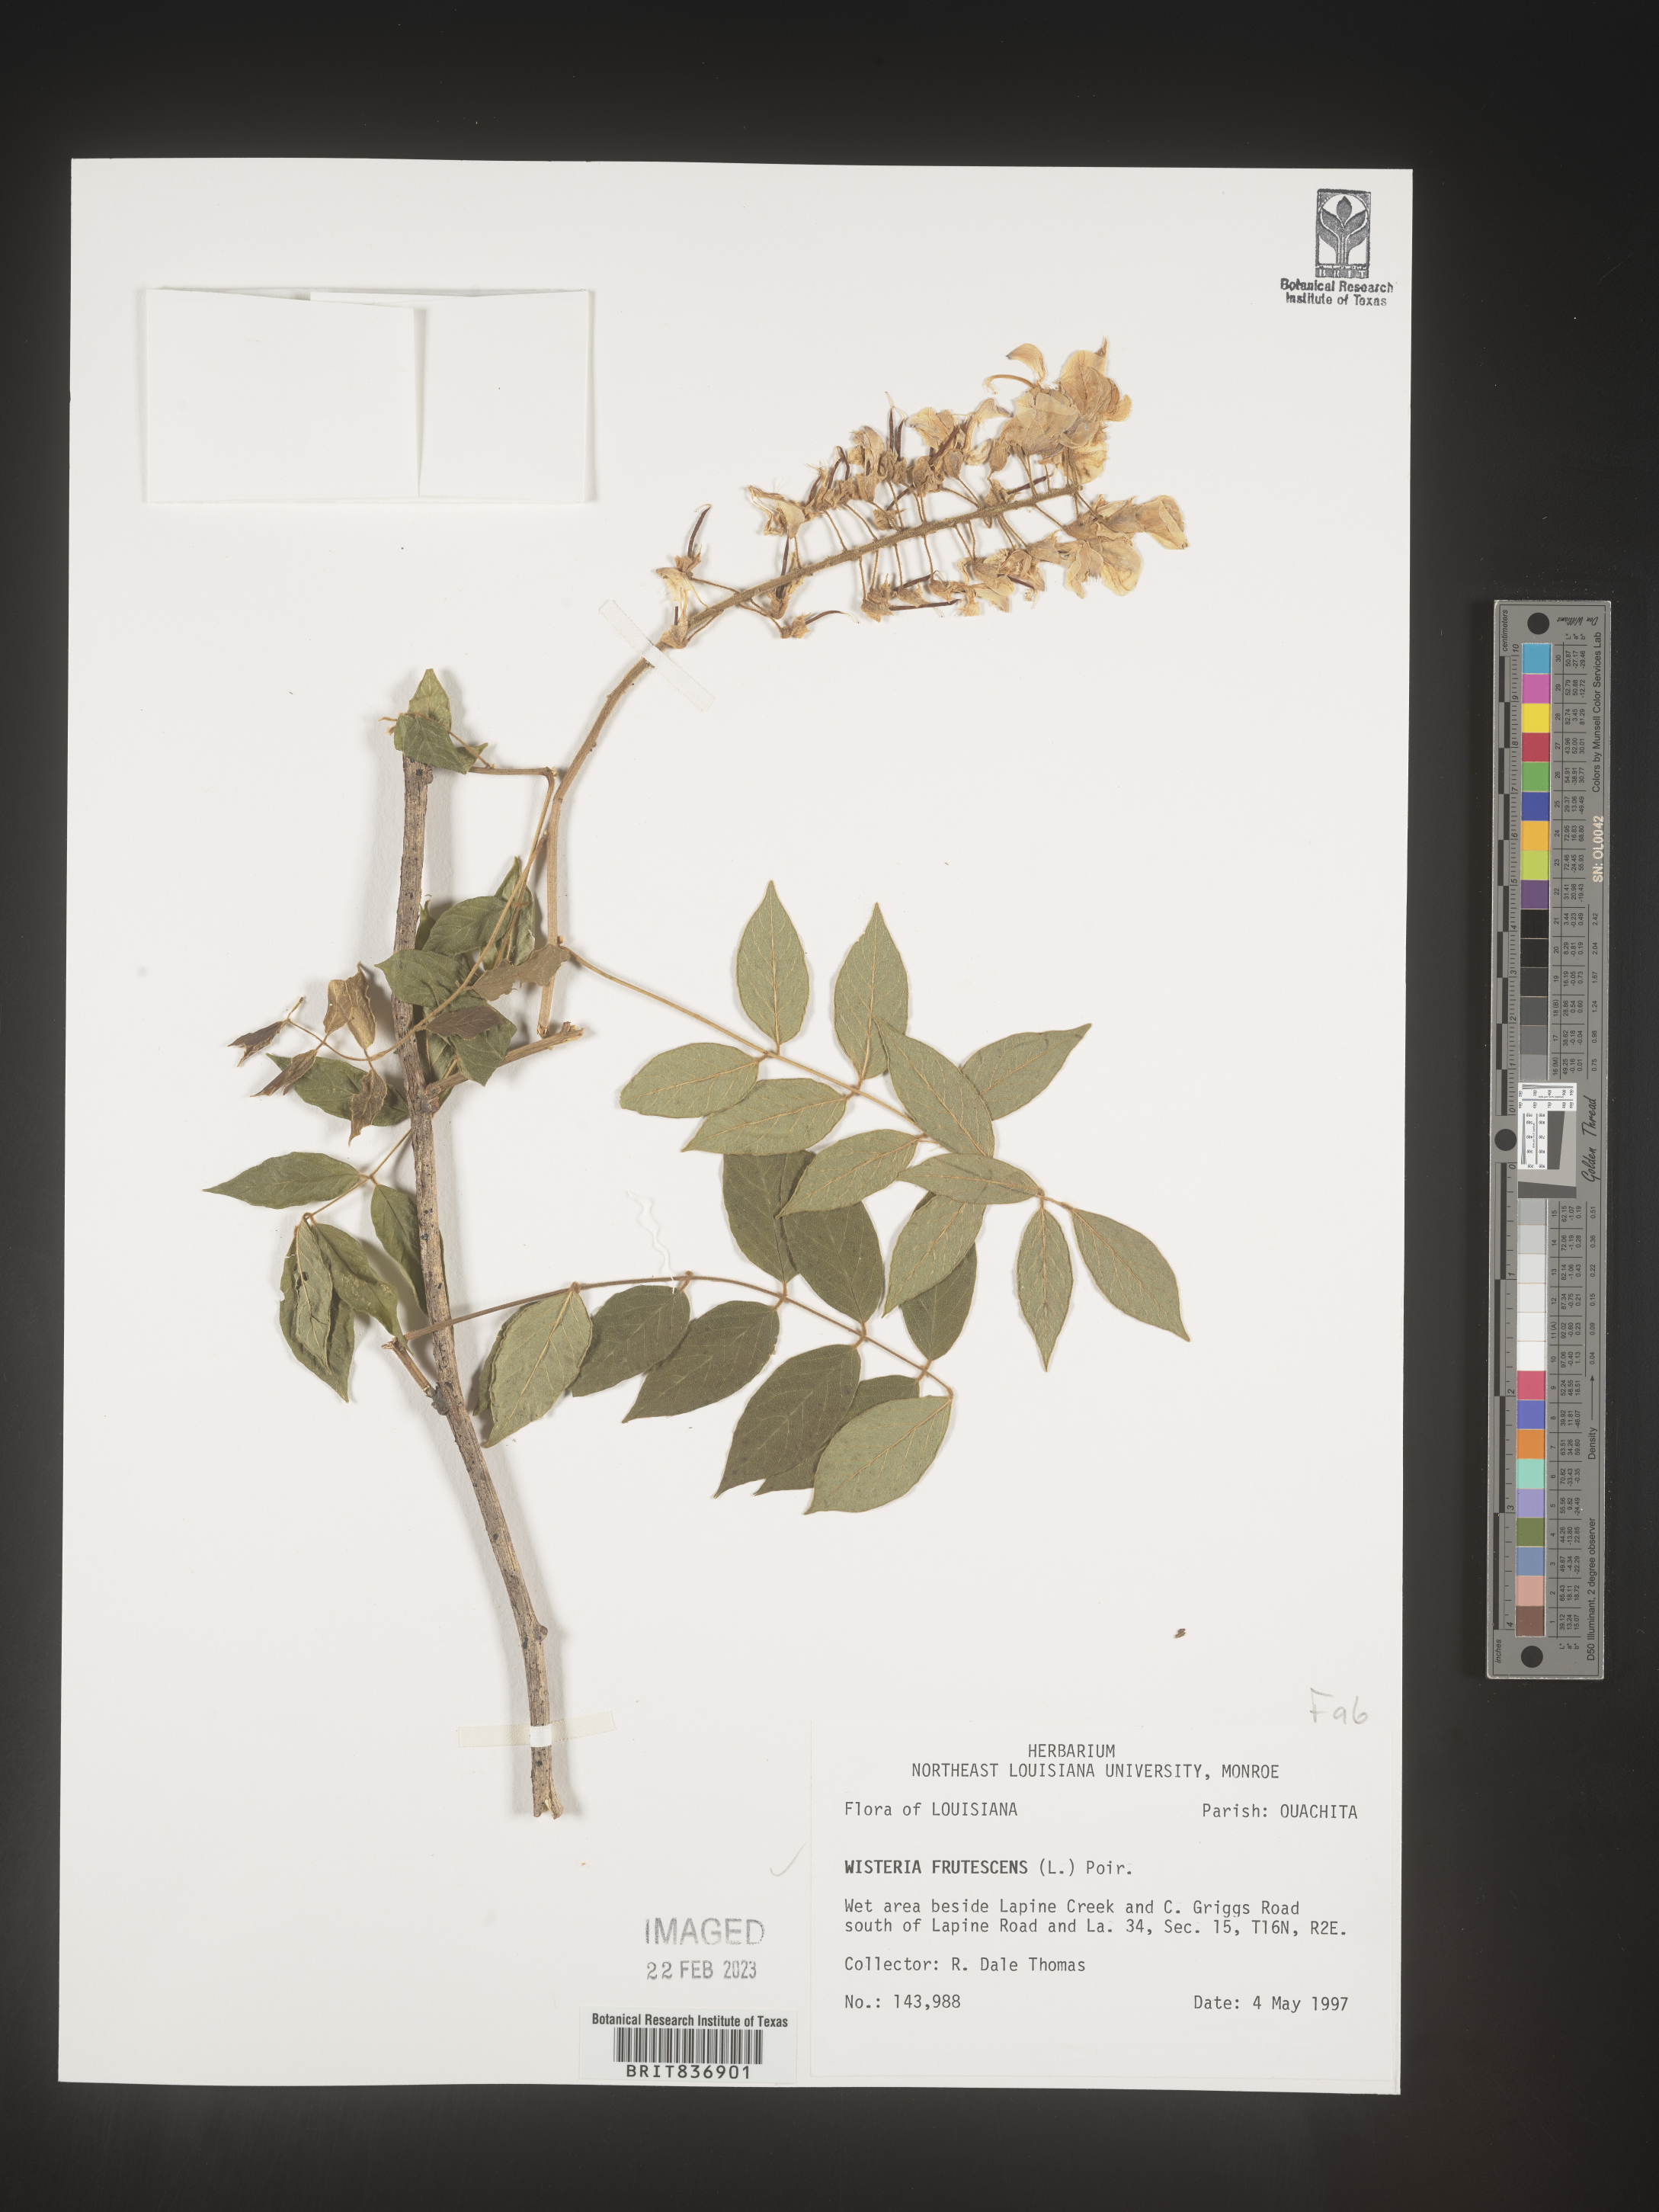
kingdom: Plantae
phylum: Tracheophyta
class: Magnoliopsida
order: Fabales
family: Fabaceae
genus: Wisteria
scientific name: Wisteria
